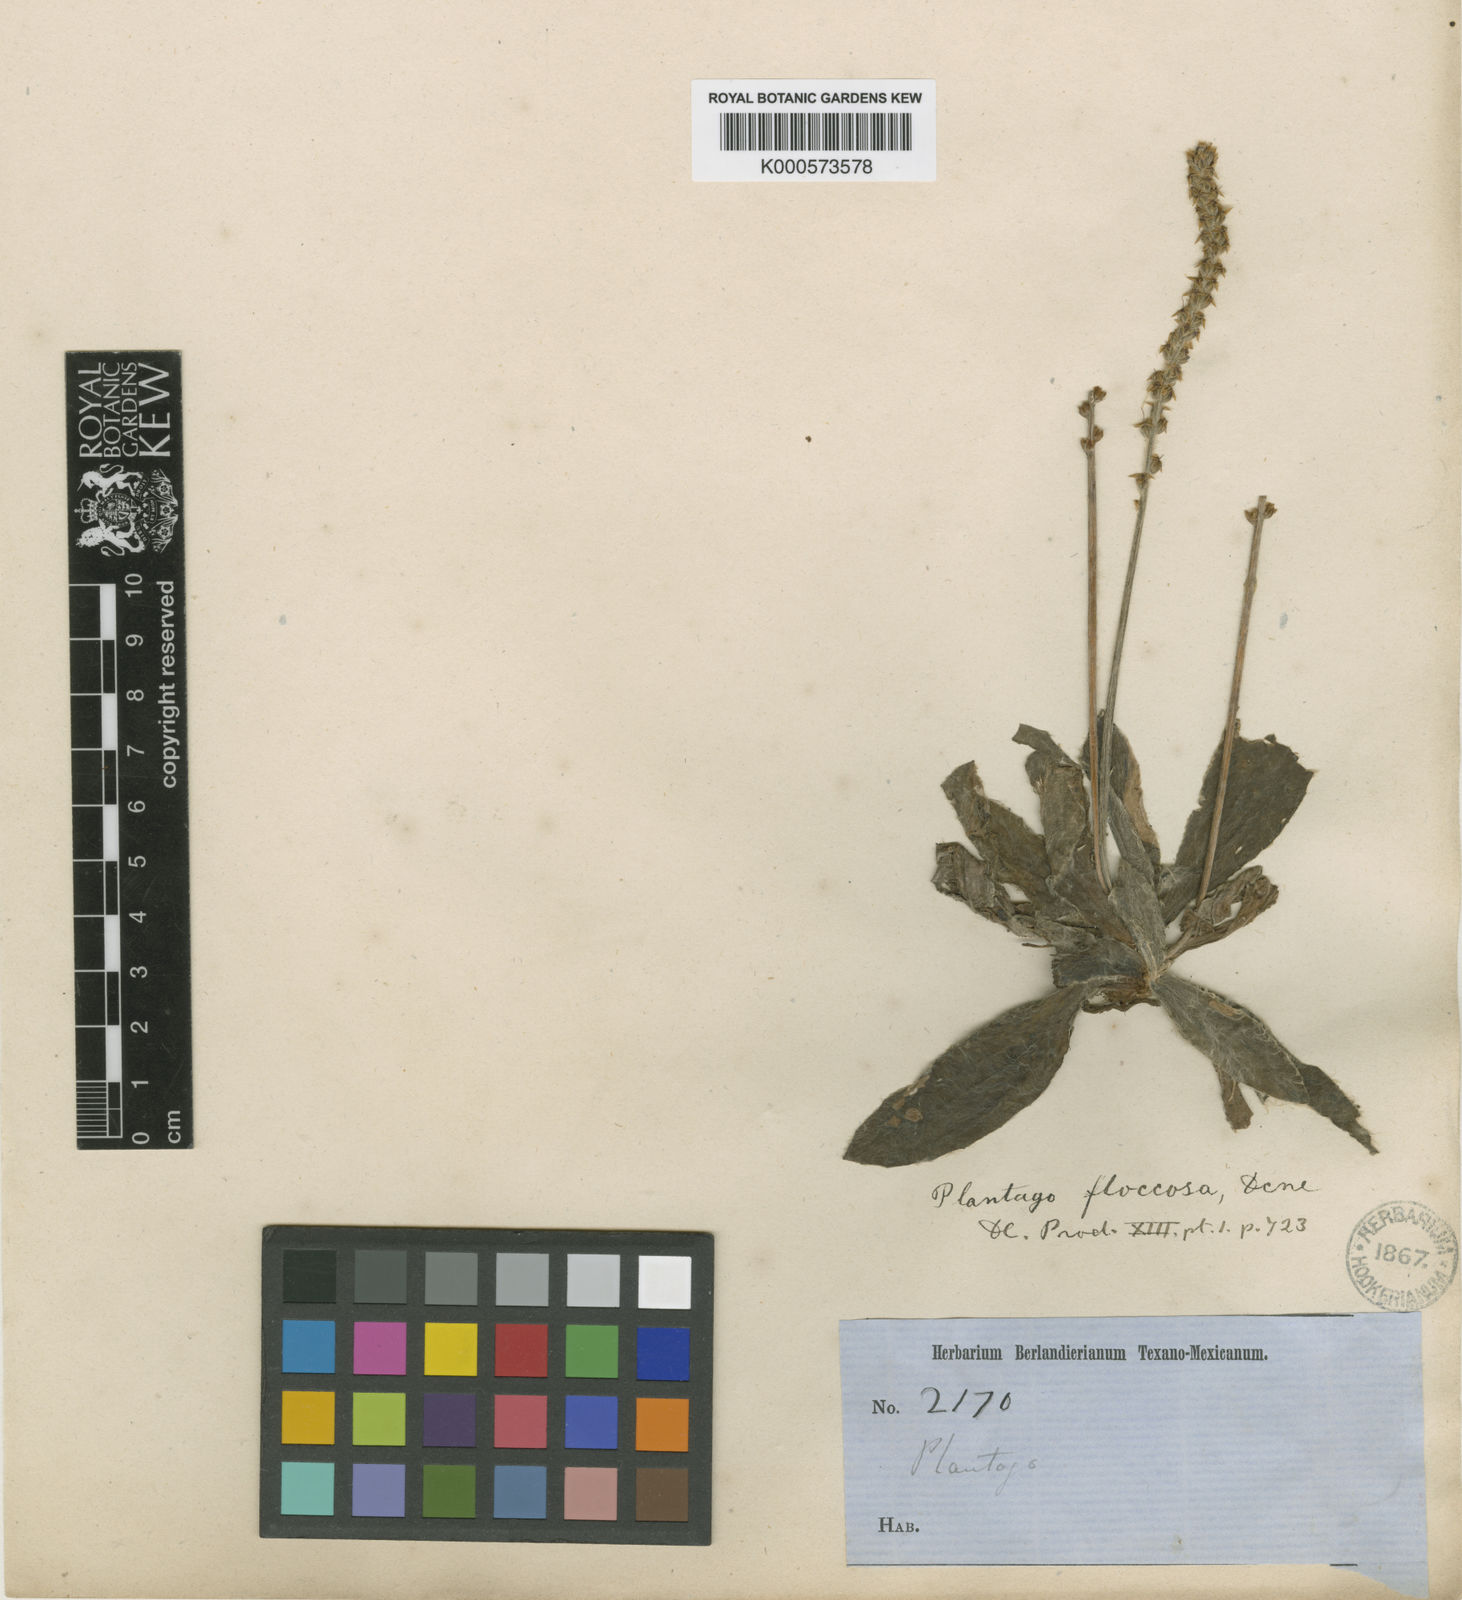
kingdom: Plantae
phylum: Tracheophyta
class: Magnoliopsida
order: Lamiales
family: Plantaginaceae
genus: Plantago
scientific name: Plantago floccosa
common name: Floccose plantain
